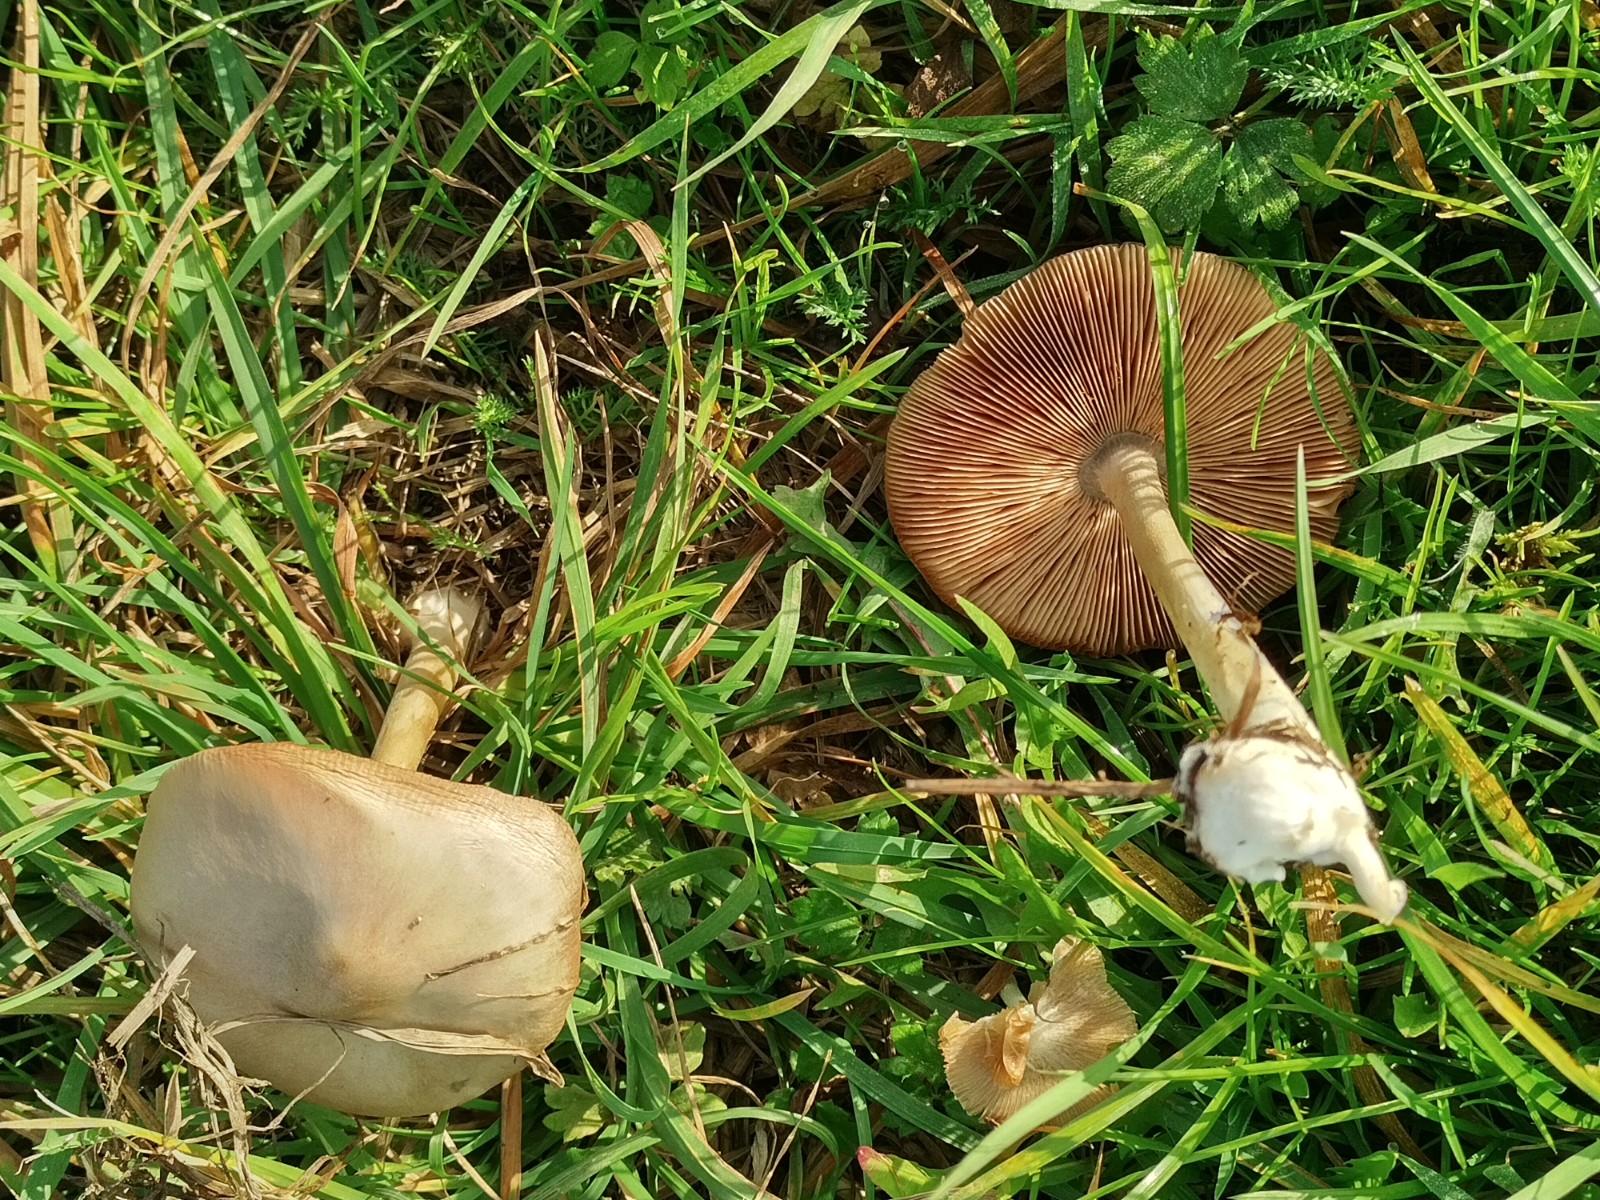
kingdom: Fungi
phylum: Basidiomycota
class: Agaricomycetes
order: Agaricales
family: Pluteaceae
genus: Volvopluteus
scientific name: Volvopluteus gloiocephalus
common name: høj posesvamp
